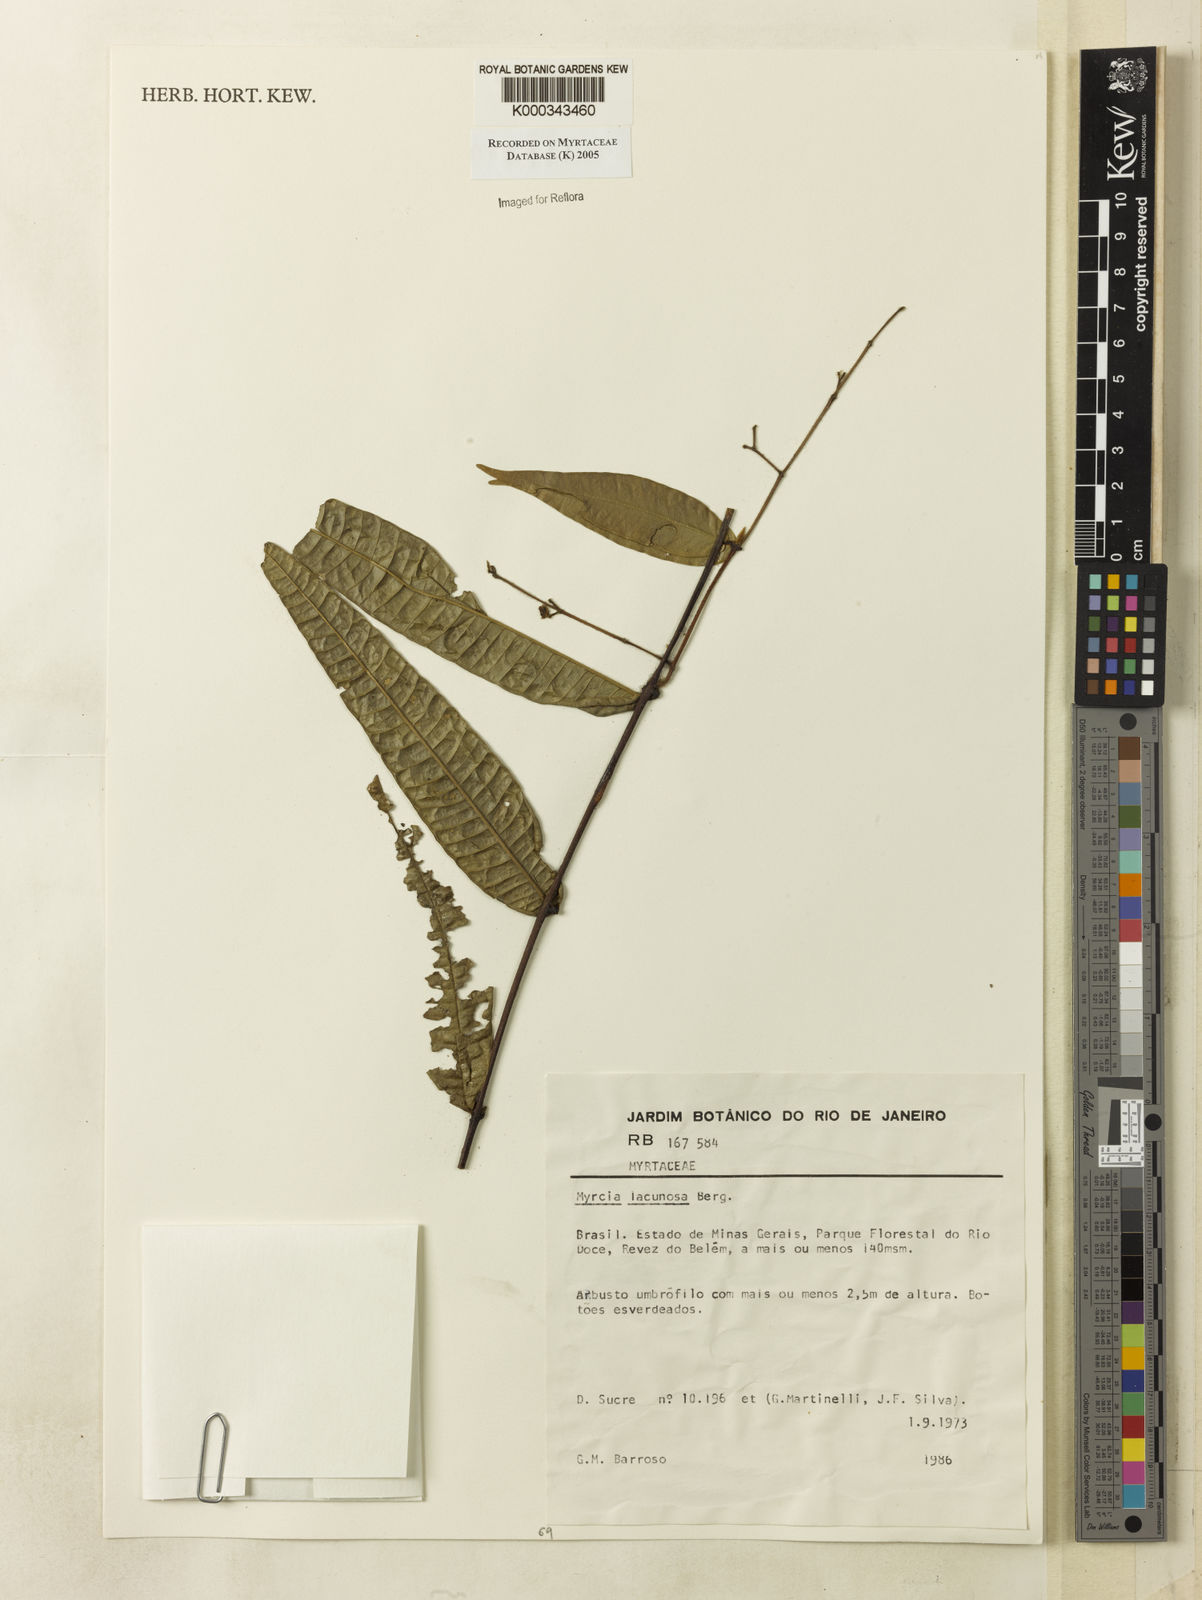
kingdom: Plantae
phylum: Tracheophyta
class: Magnoliopsida
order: Myrtales
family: Myrtaceae
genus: Myrcia
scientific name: Myrcia lacunosa
